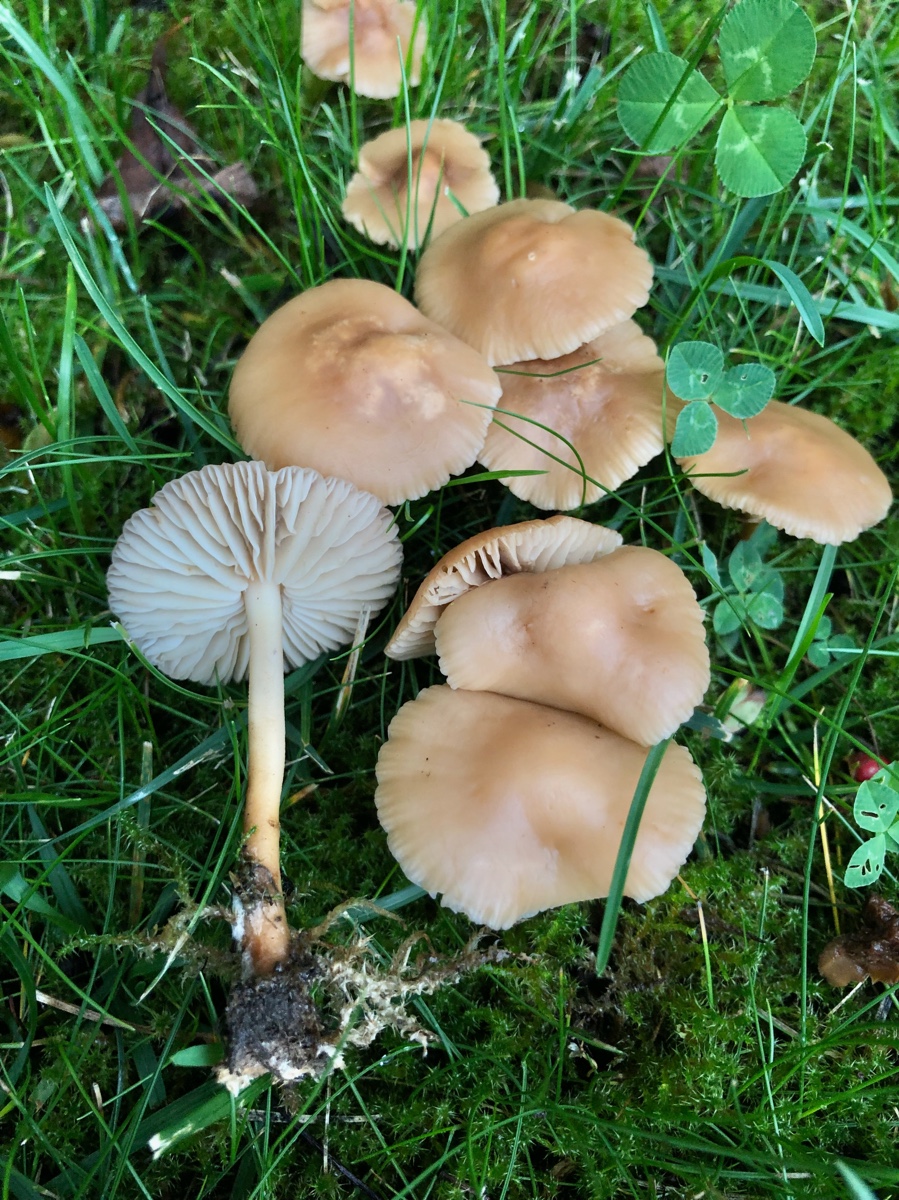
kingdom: Fungi
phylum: Basidiomycota
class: Agaricomycetes
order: Agaricales
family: Marasmiaceae
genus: Marasmius
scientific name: Marasmius oreades
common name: elledans-bruskhat
